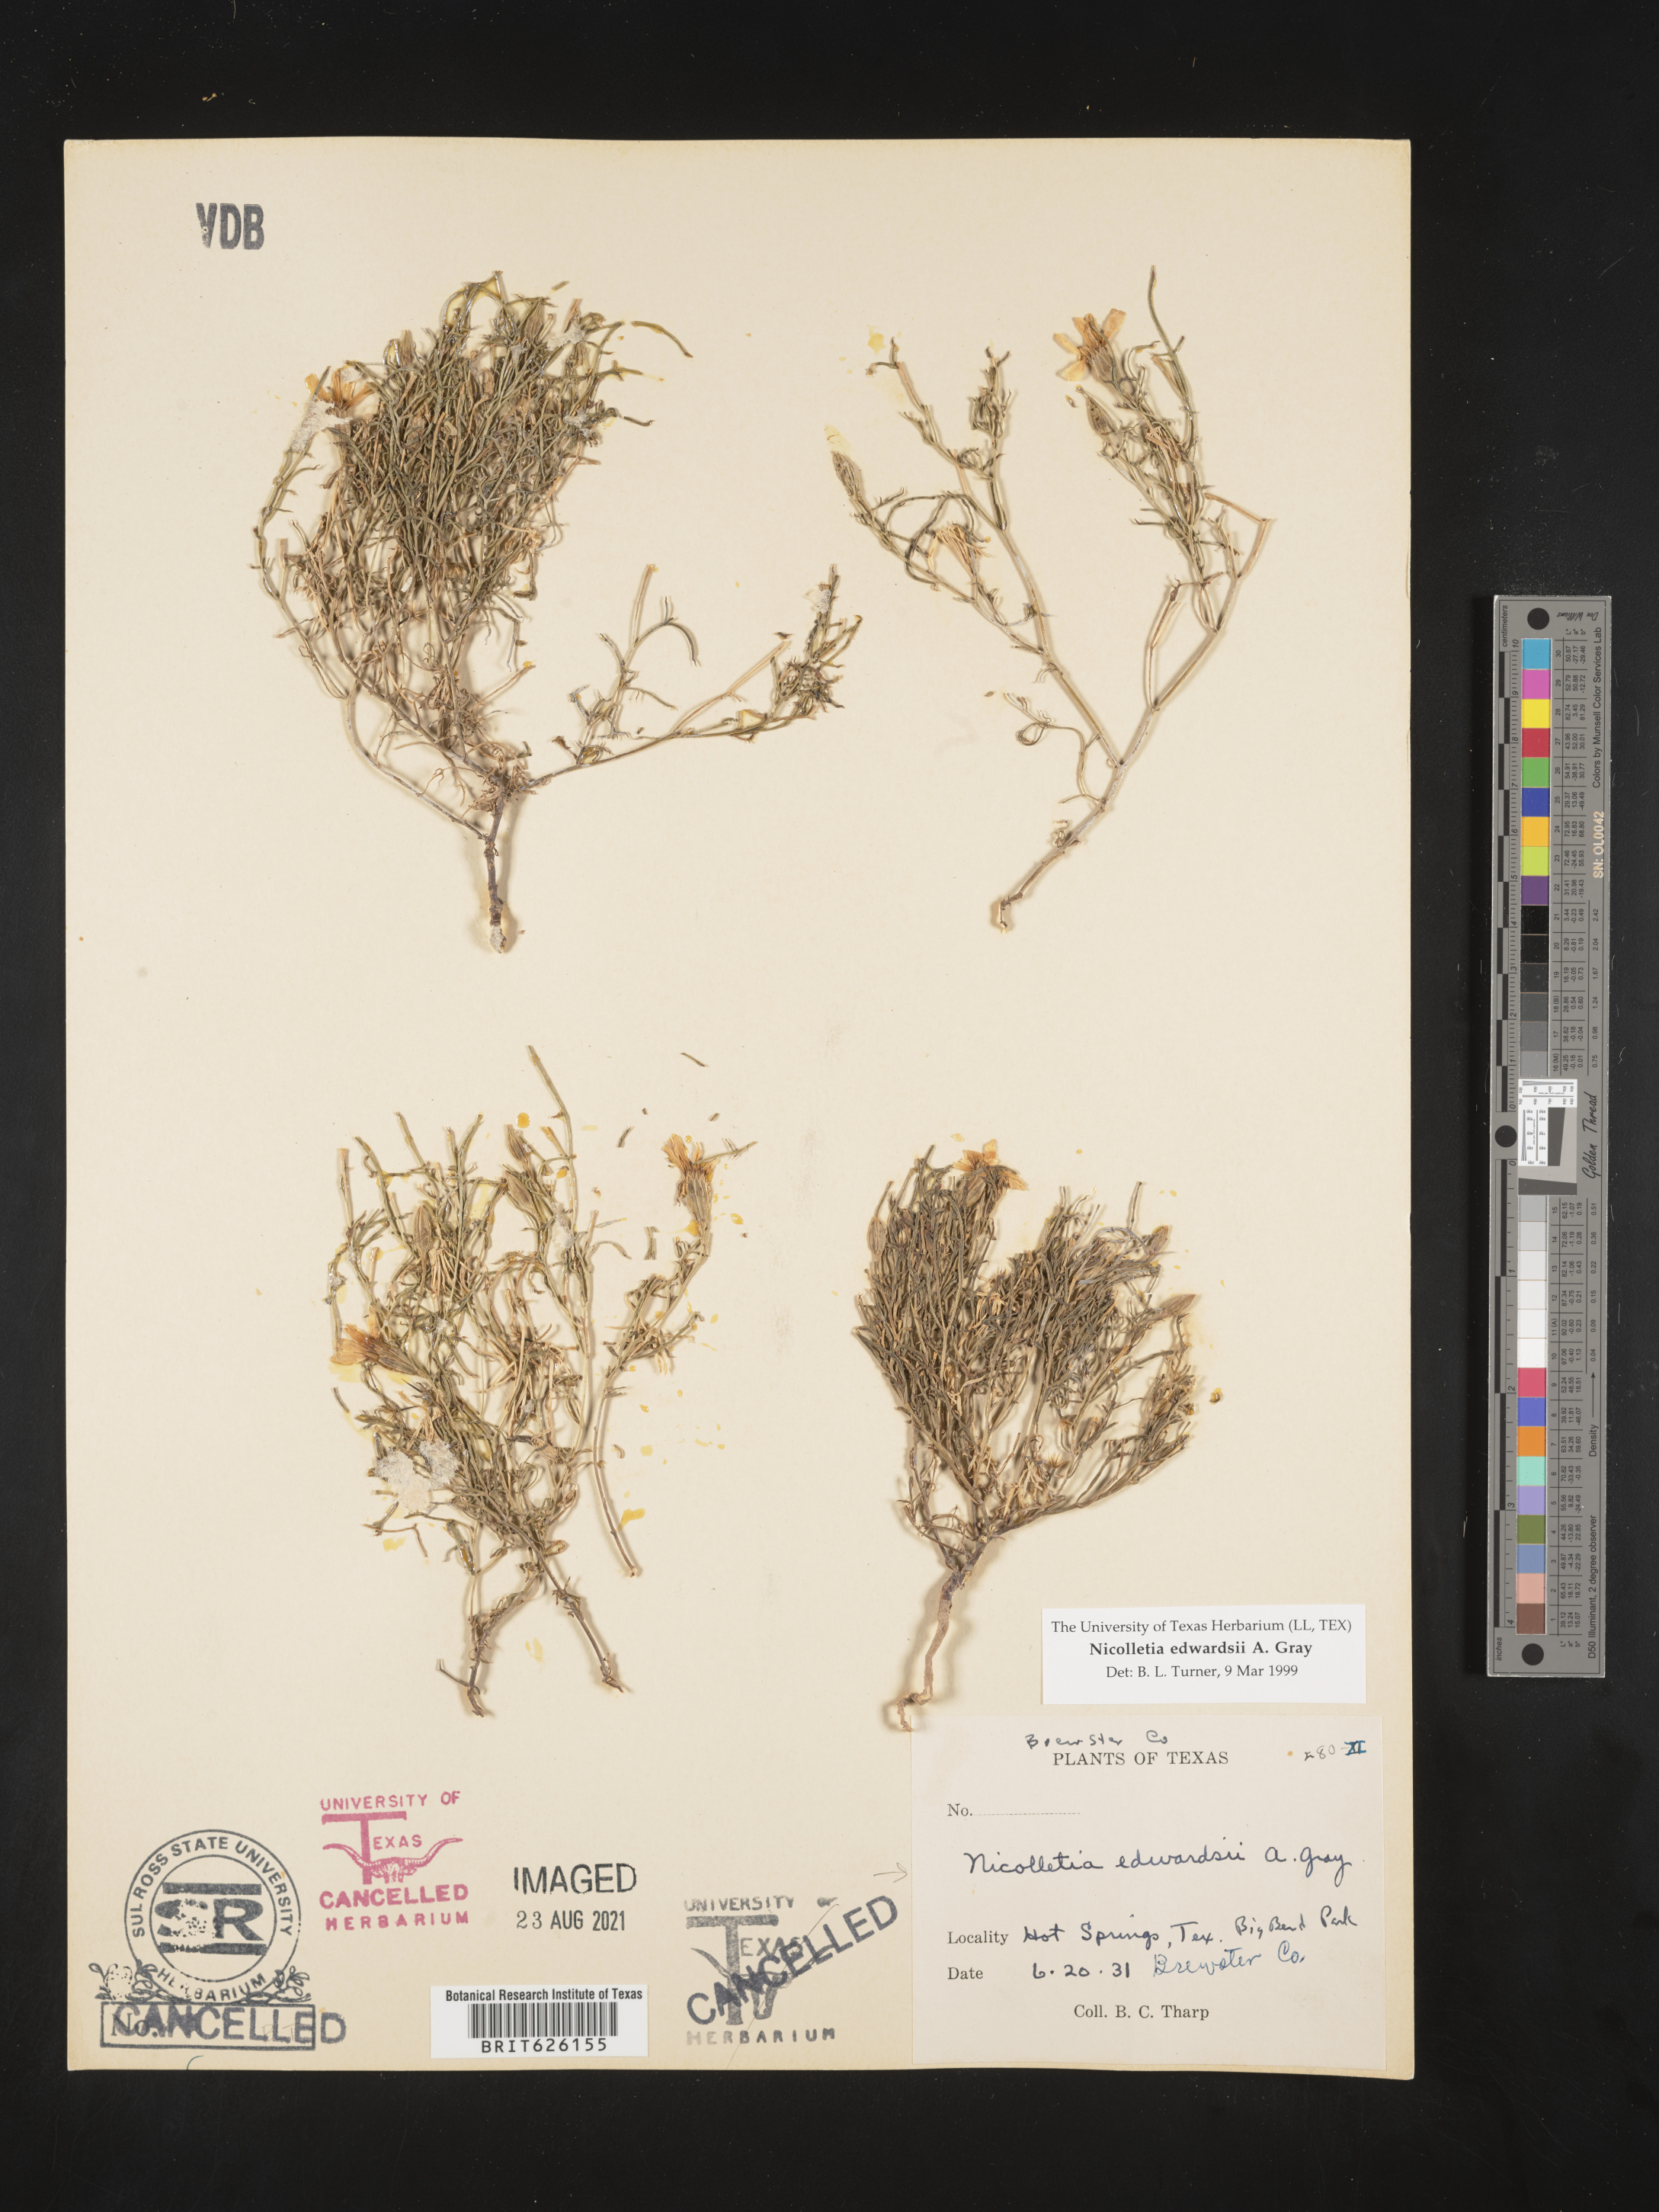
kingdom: Plantae
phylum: Tracheophyta
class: Magnoliopsida
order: Asterales
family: Asteraceae
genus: Nicolletia
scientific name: Nicolletia edwardsii
